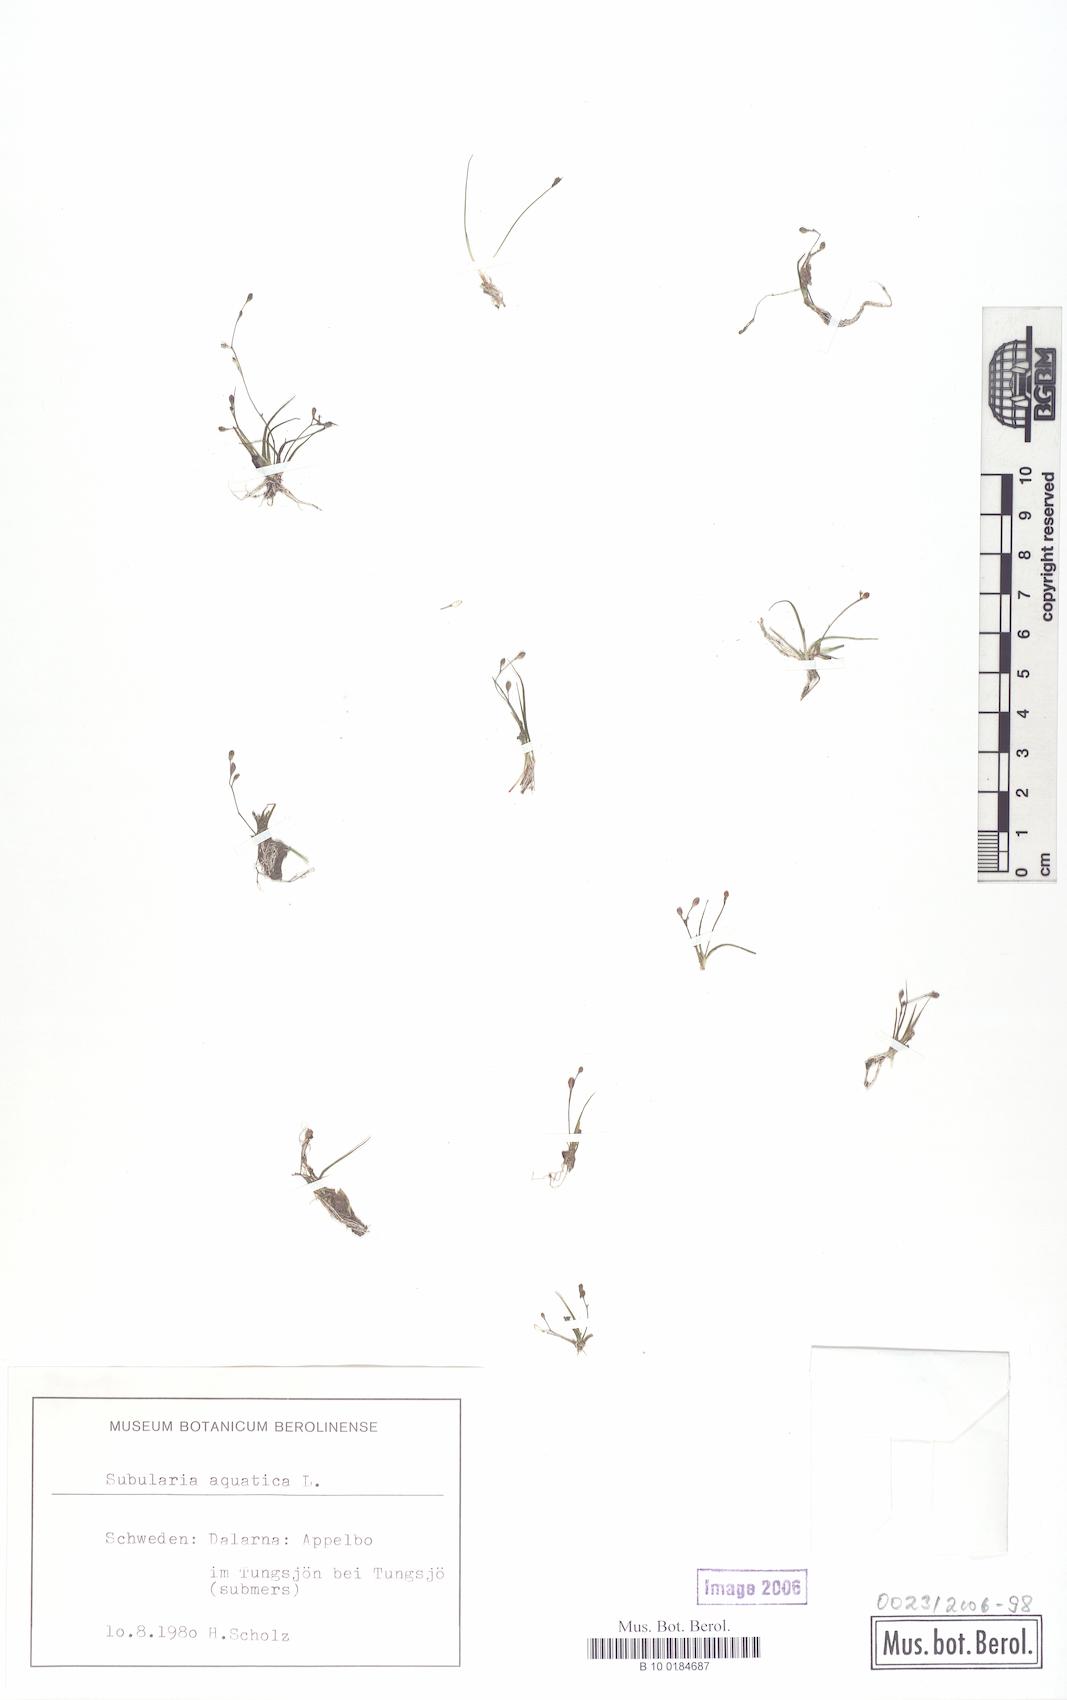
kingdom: Plantae
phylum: Tracheophyta
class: Magnoliopsida
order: Brassicales
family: Brassicaceae
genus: Subularia
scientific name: Subularia aquatica
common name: Awlwort
